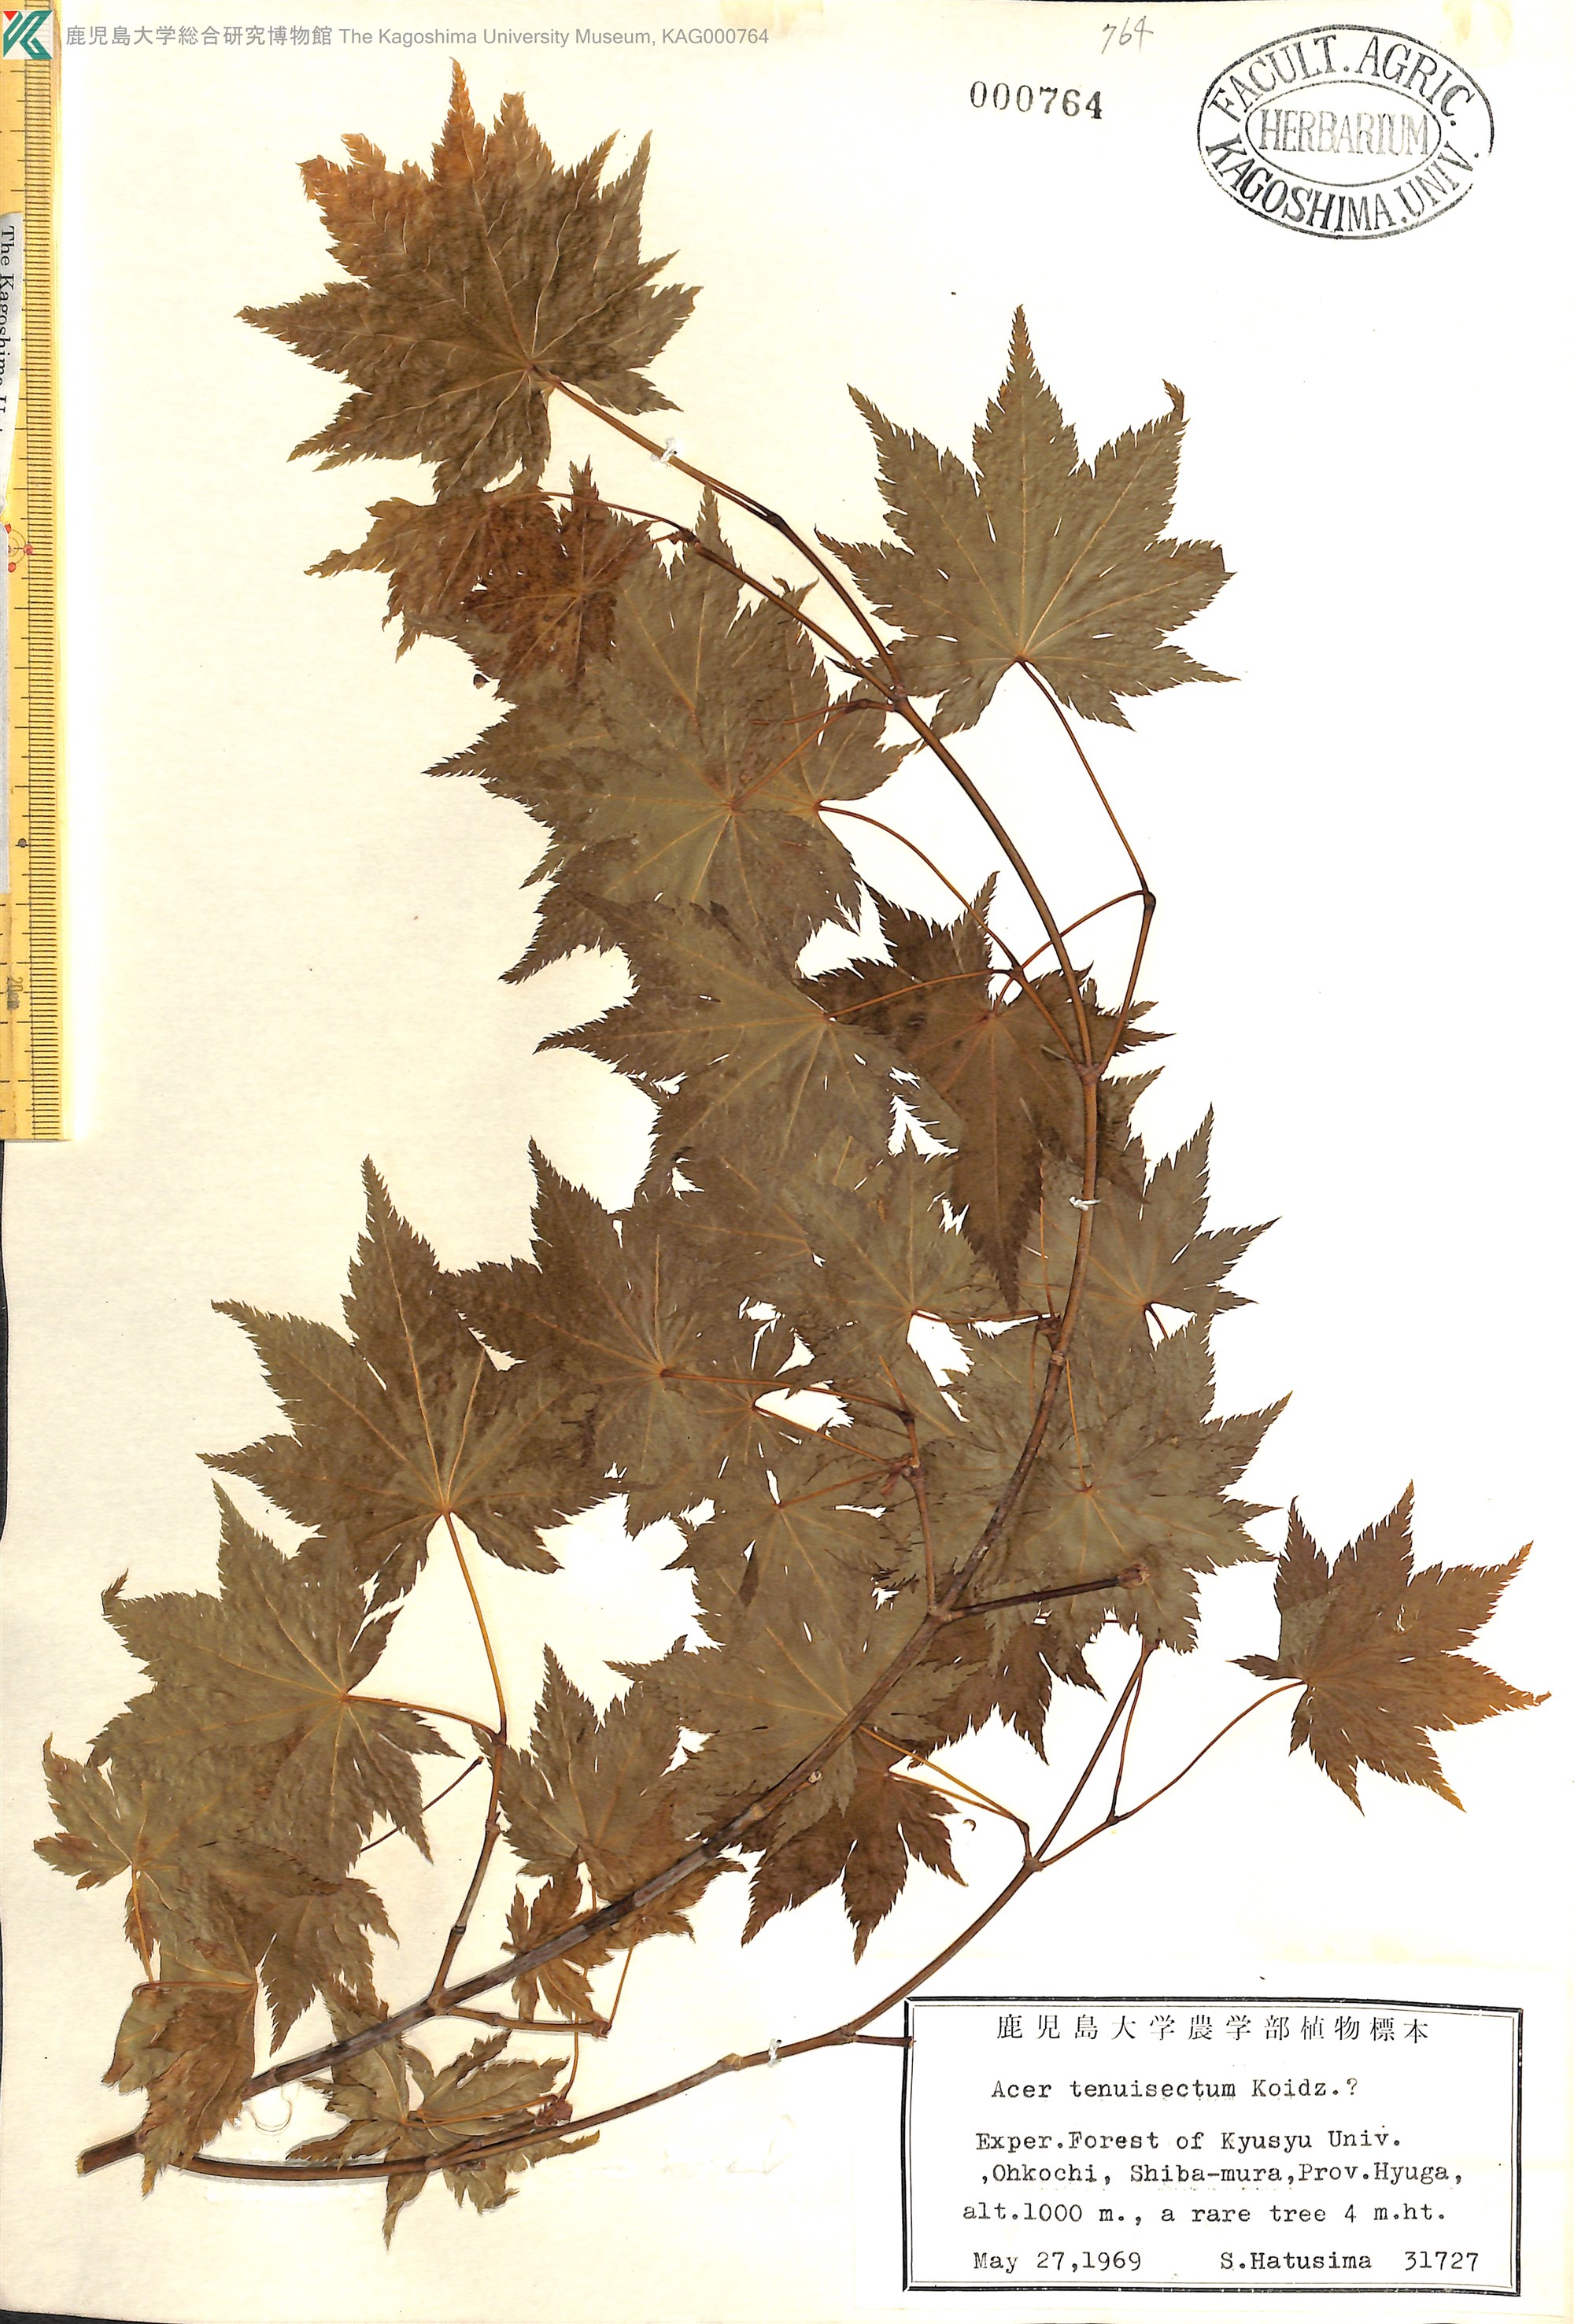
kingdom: Plantae
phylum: Tracheophyta
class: Magnoliopsida
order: Sapindales
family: Sapindaceae
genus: Acer
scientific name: Acer shirasawanum
